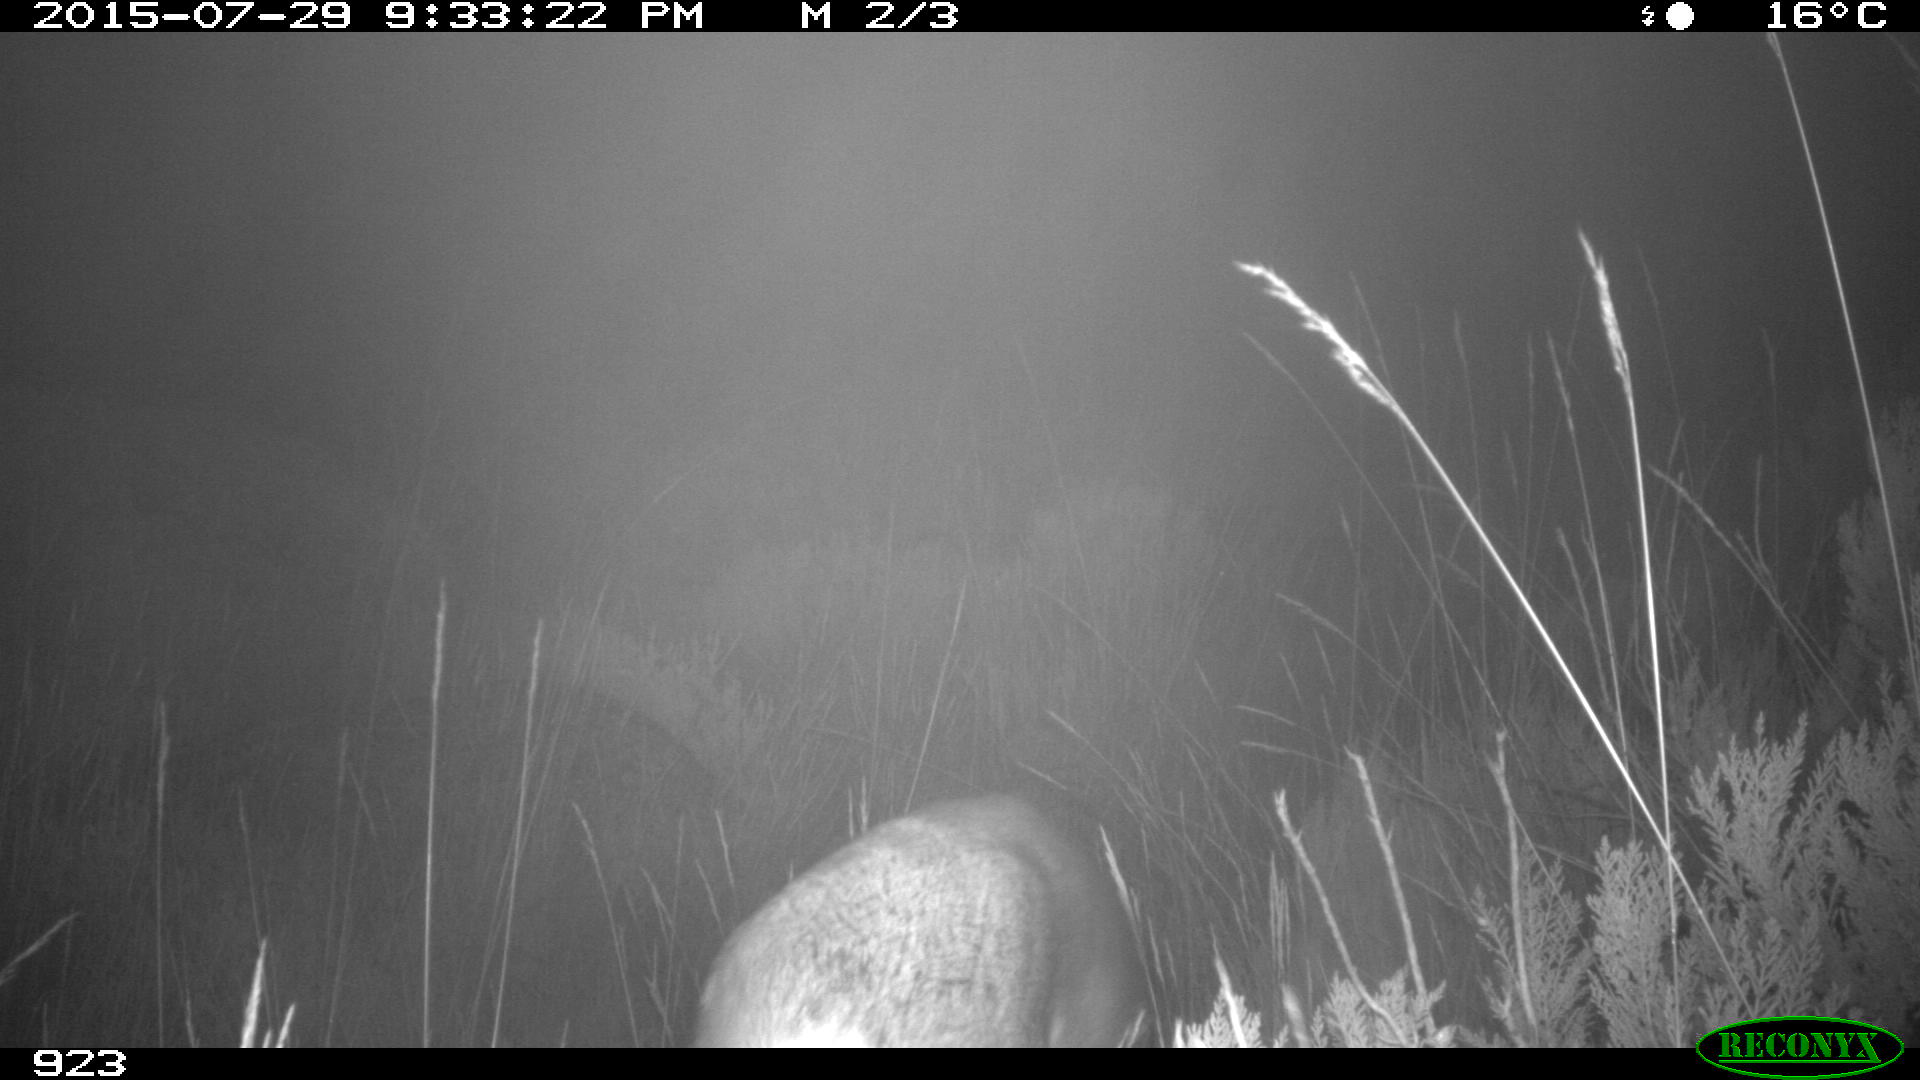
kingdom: Animalia
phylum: Chordata
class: Mammalia
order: Artiodactyla
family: Cervidae
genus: Capreolus
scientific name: Capreolus capreolus
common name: Western roe deer
